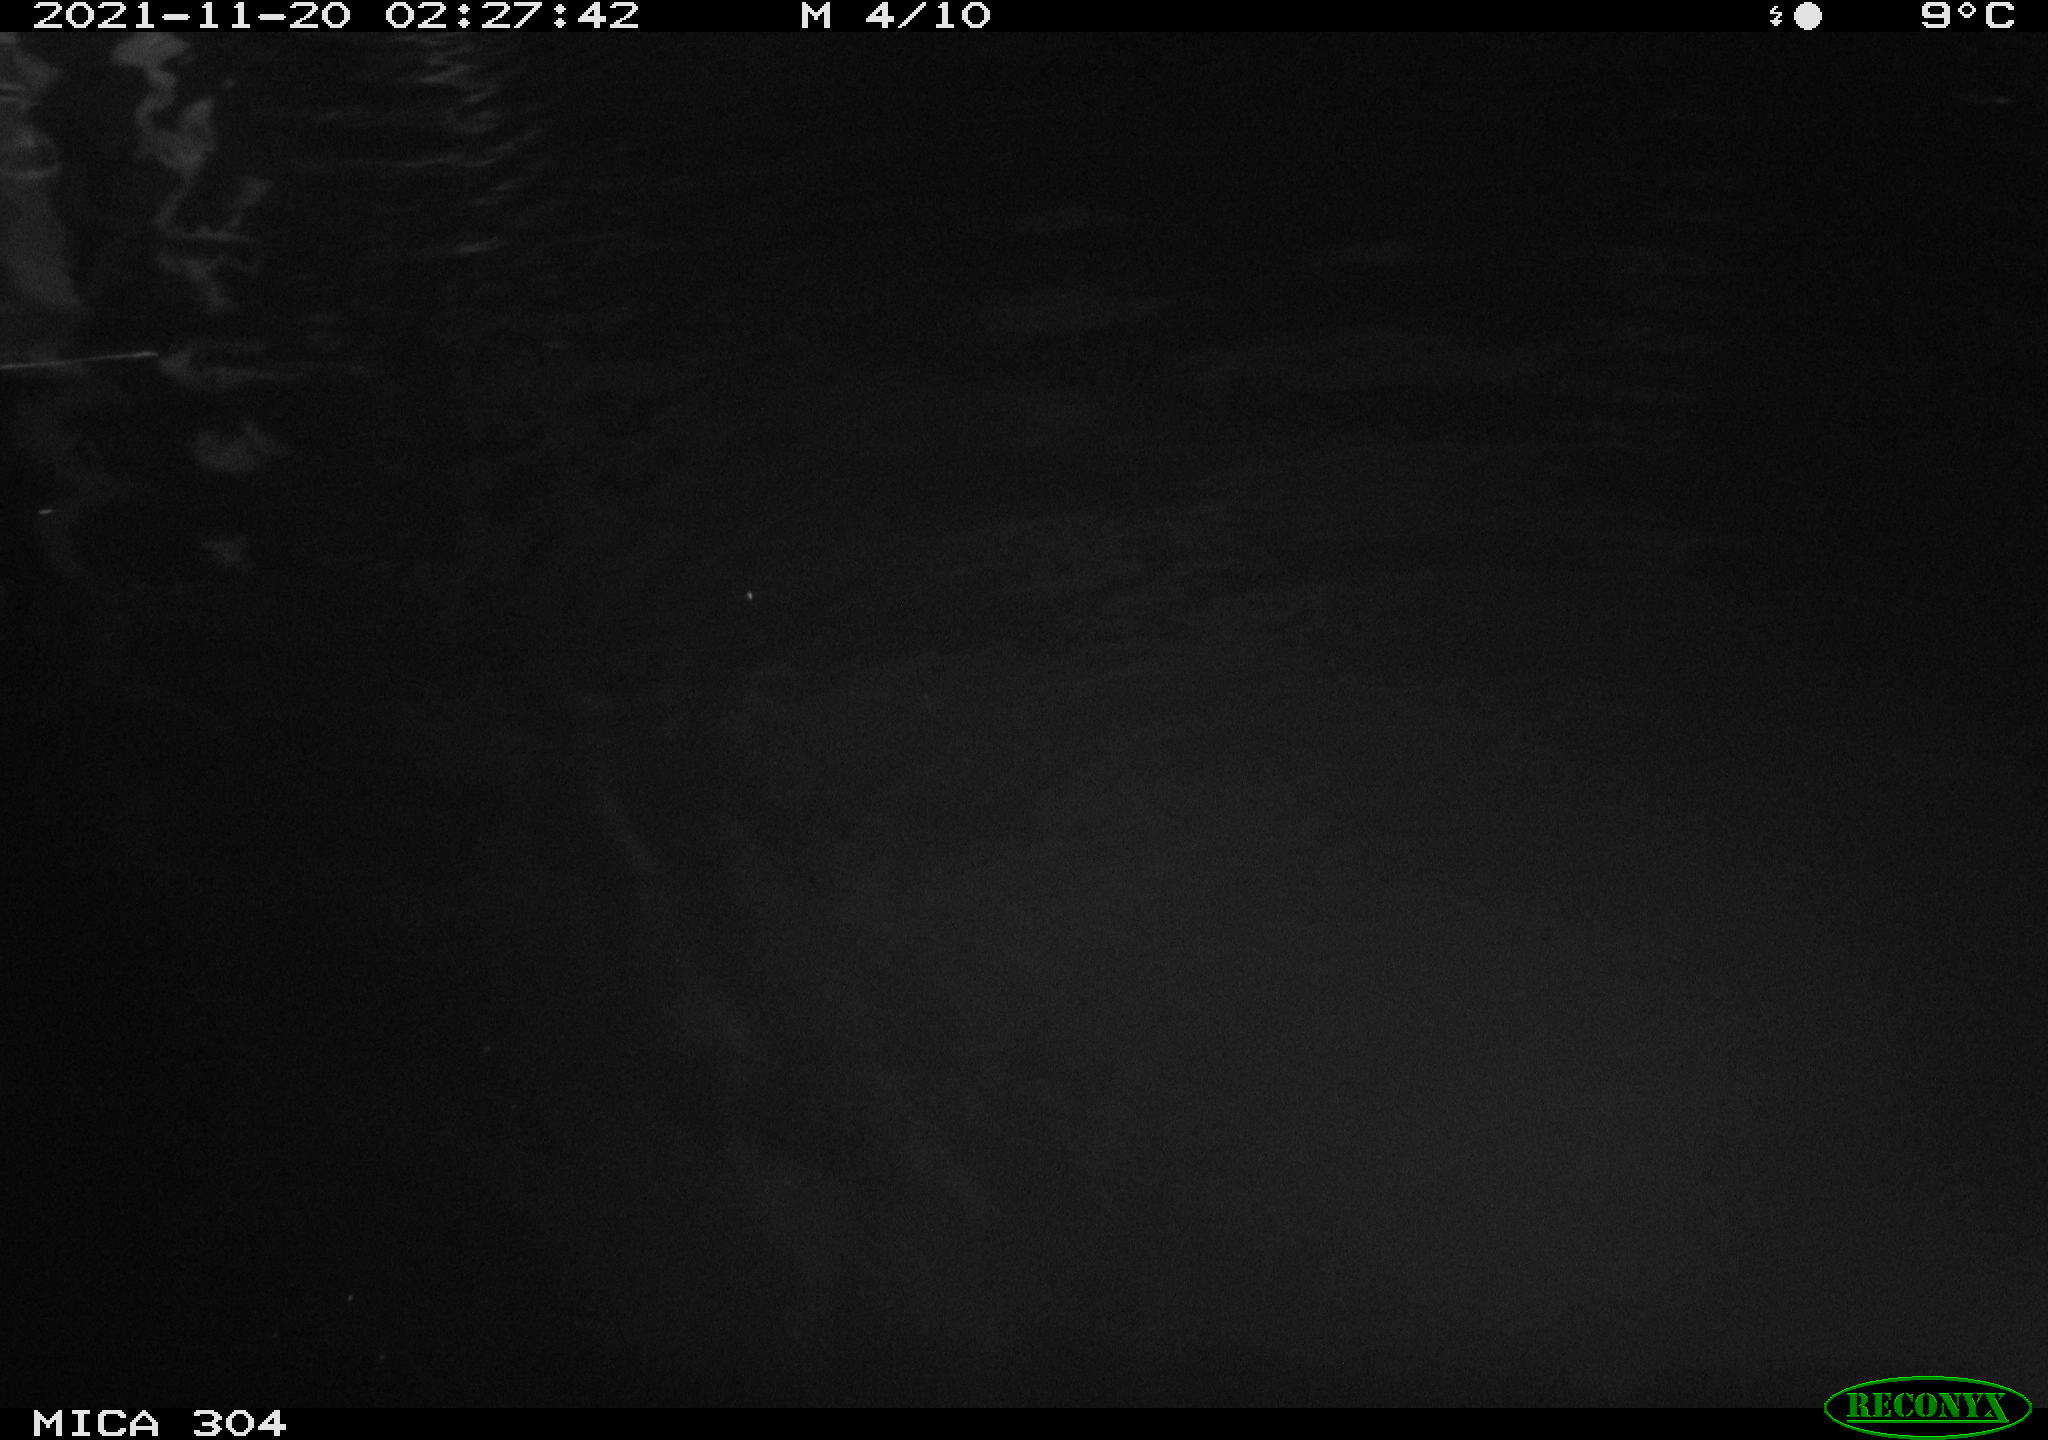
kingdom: Animalia
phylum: Chordata
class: Mammalia
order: Rodentia
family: Cricetidae
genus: Ondatra
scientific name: Ondatra zibethicus
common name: Muskrat
